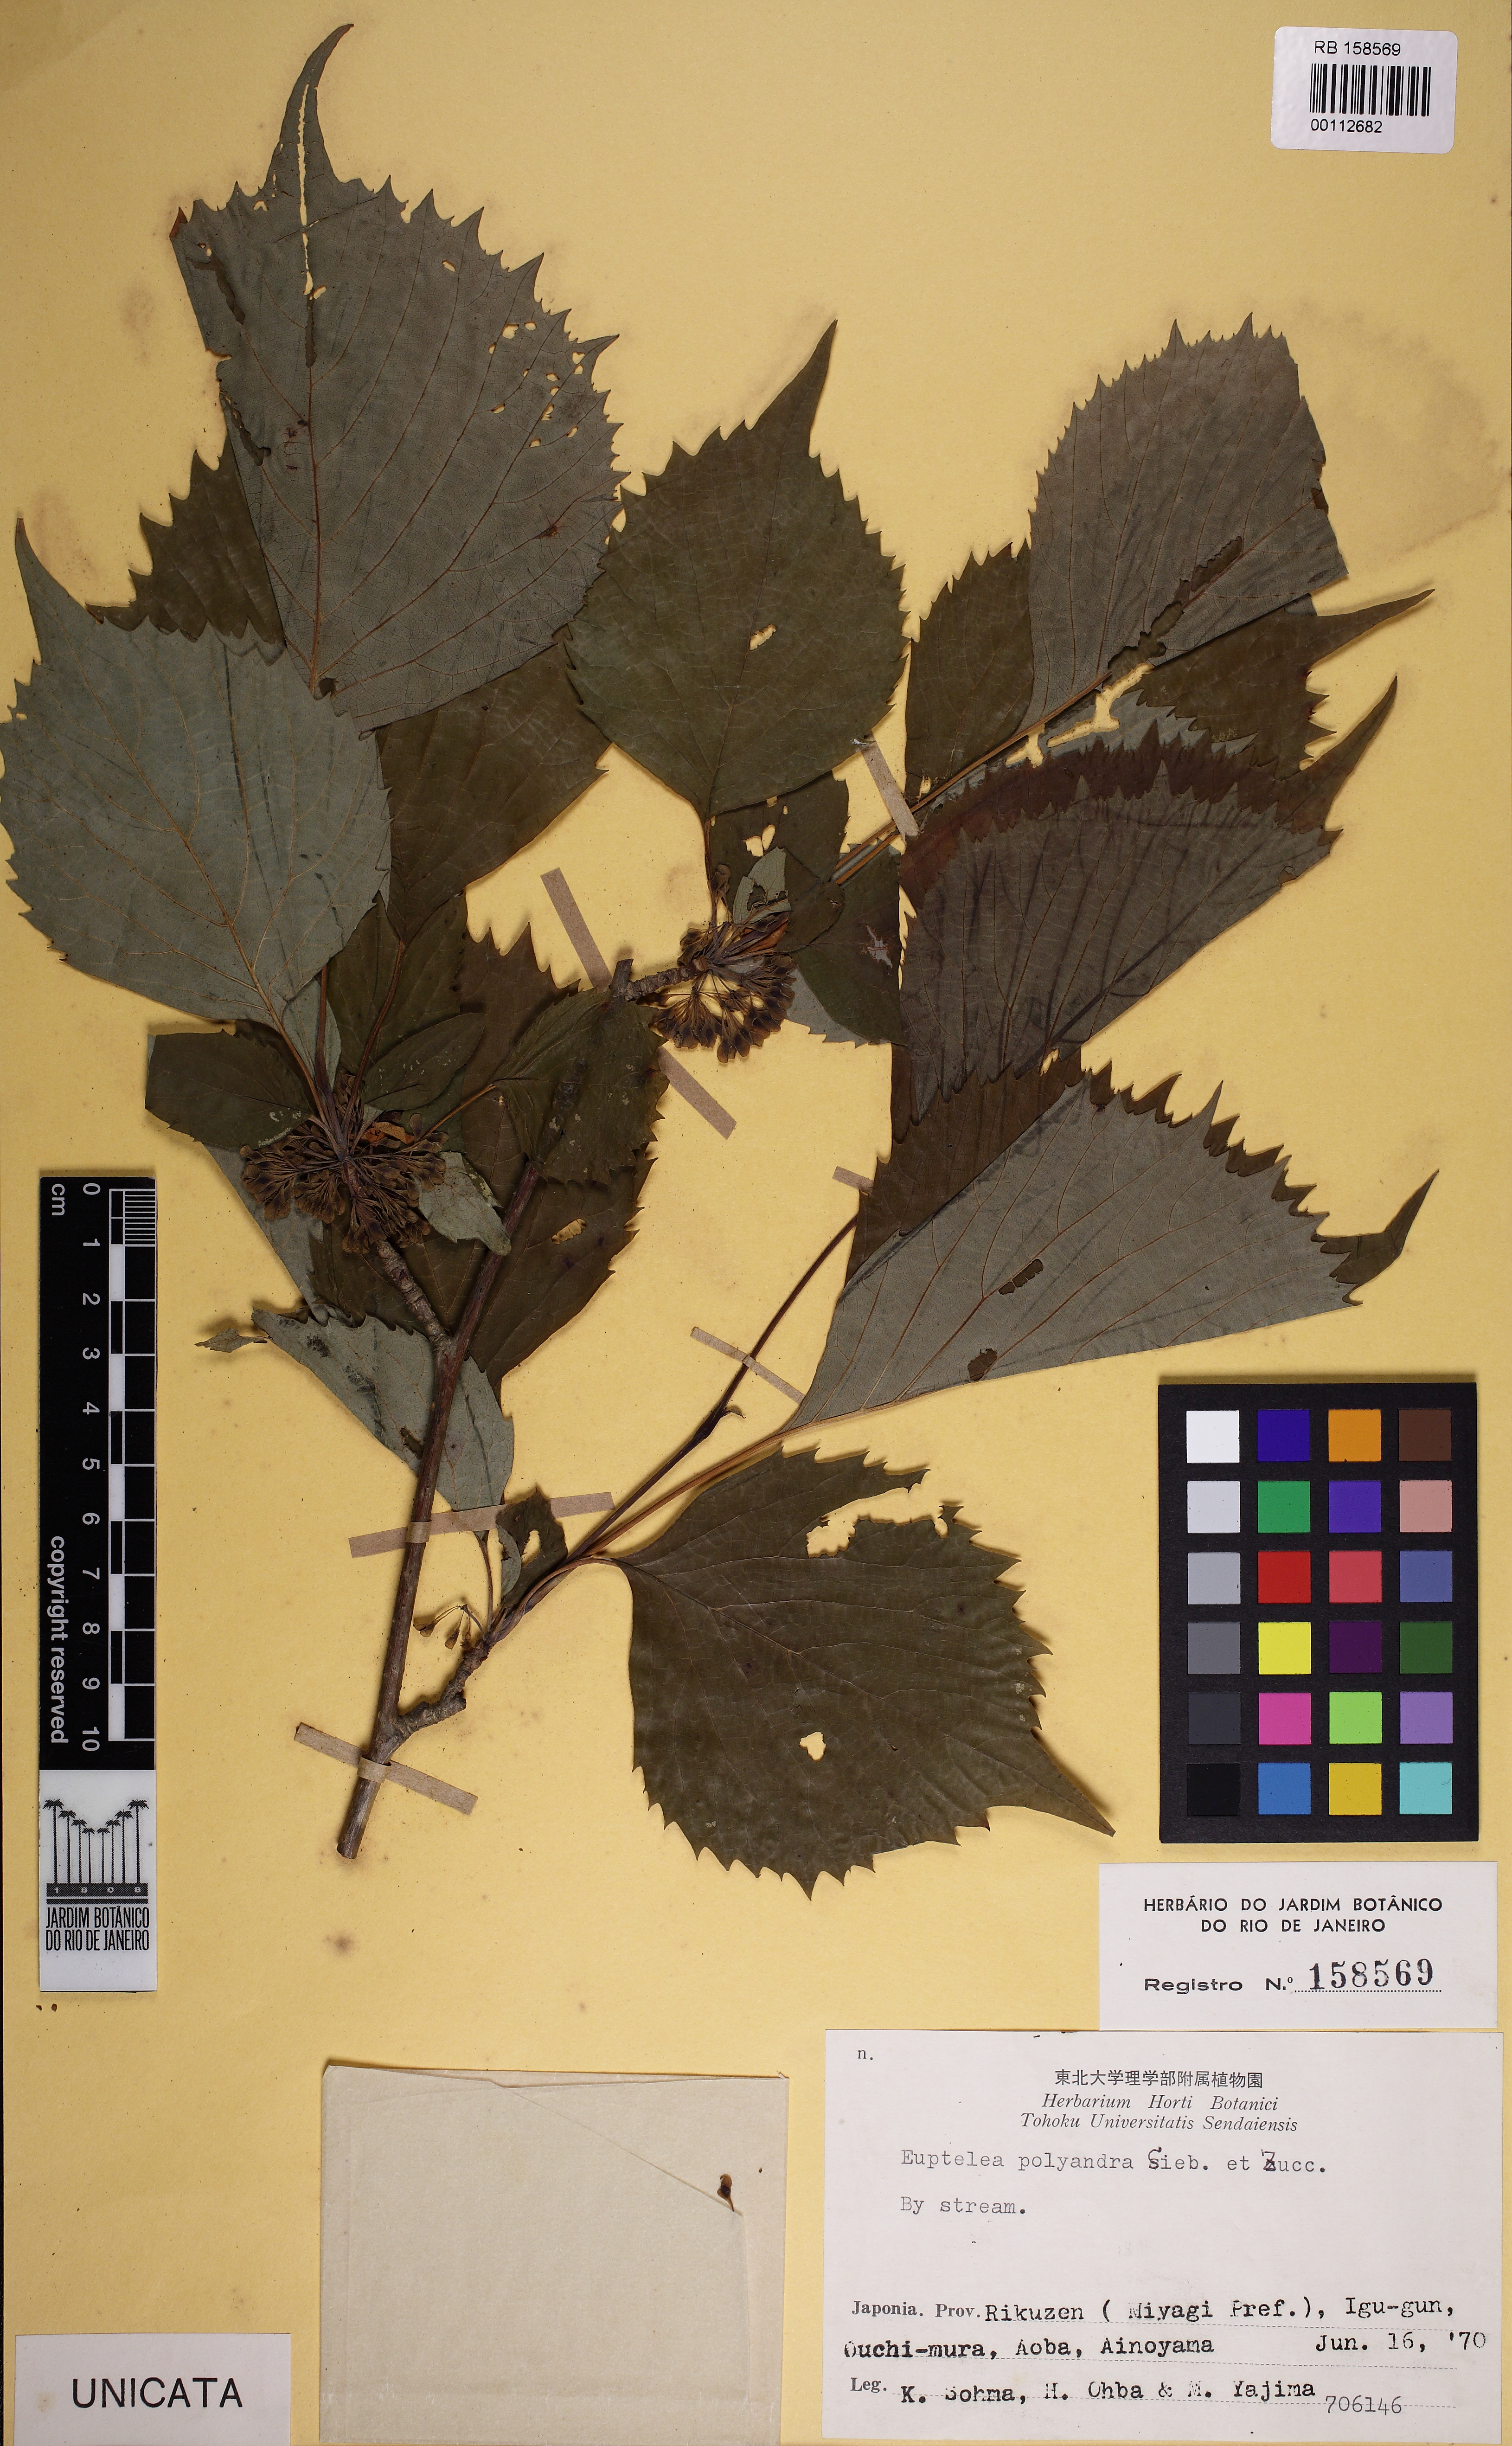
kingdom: Plantae
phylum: Tracheophyta
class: Magnoliopsida
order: Ranunculales
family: Eupteleaceae
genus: Euptelea
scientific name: Euptelea polyandra
